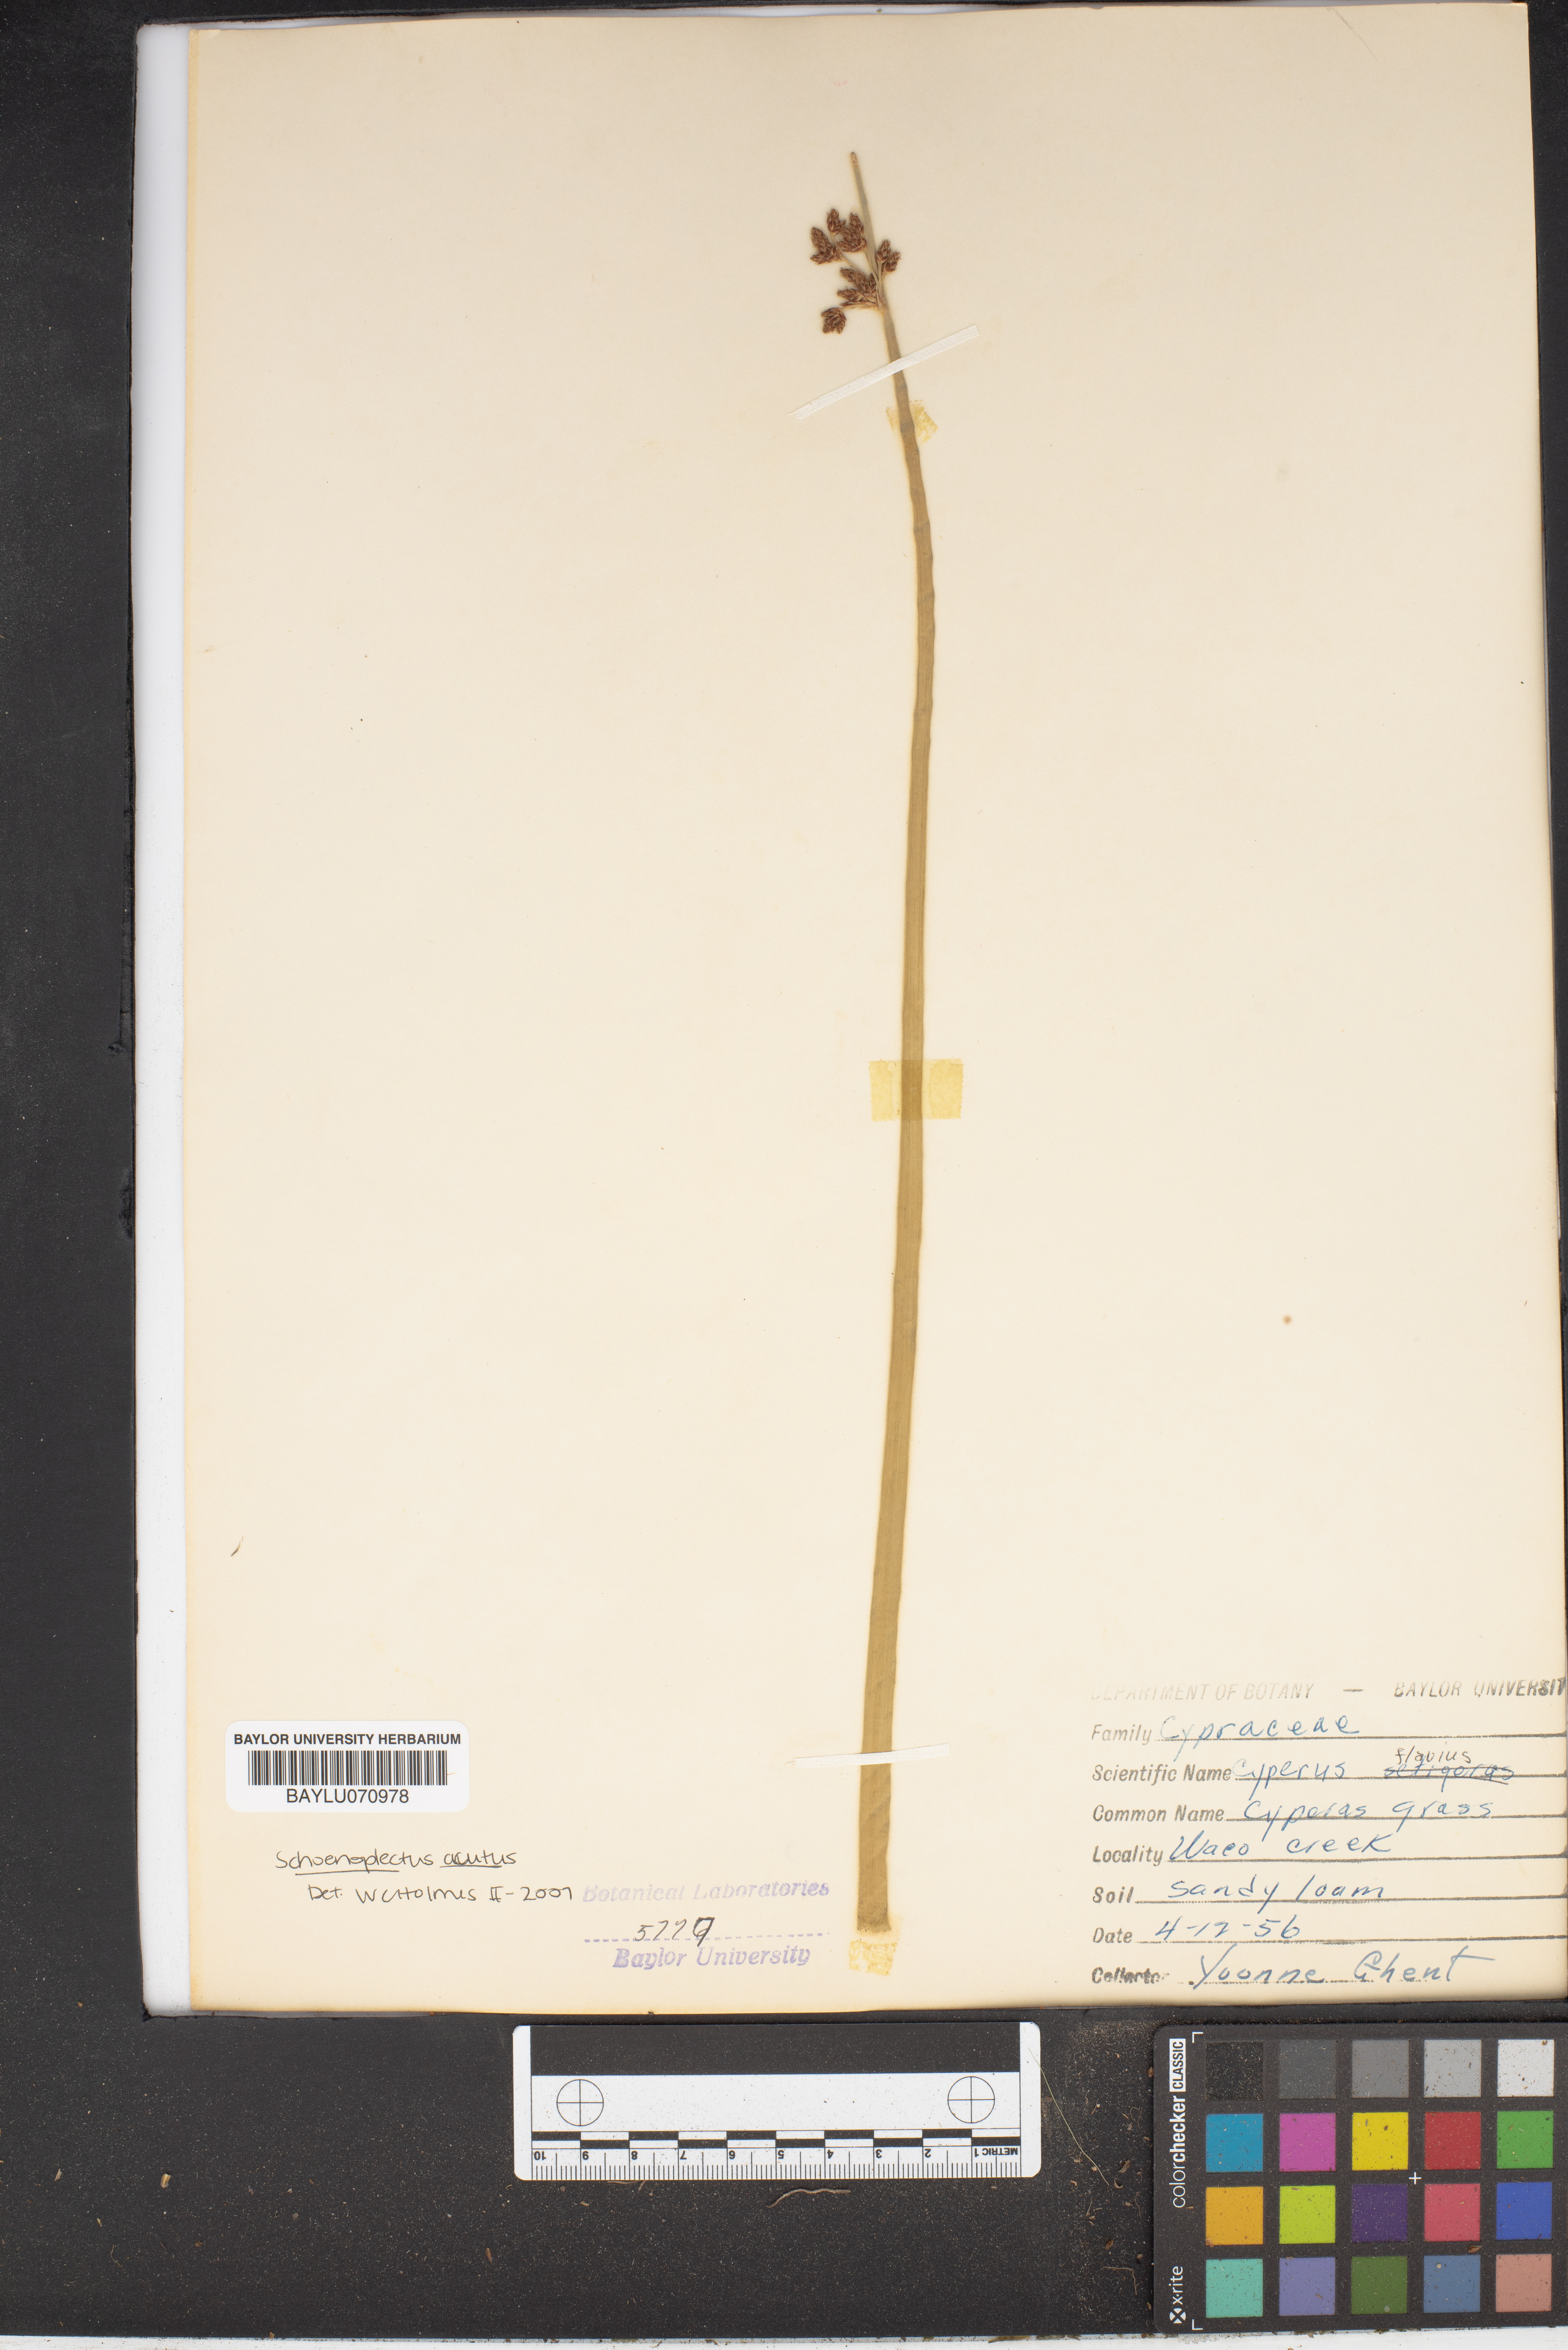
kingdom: Plantae
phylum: Tracheophyta
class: Liliopsida
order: Poales
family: Cyperaceae
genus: Cyperus
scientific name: Cyperus flavidus
